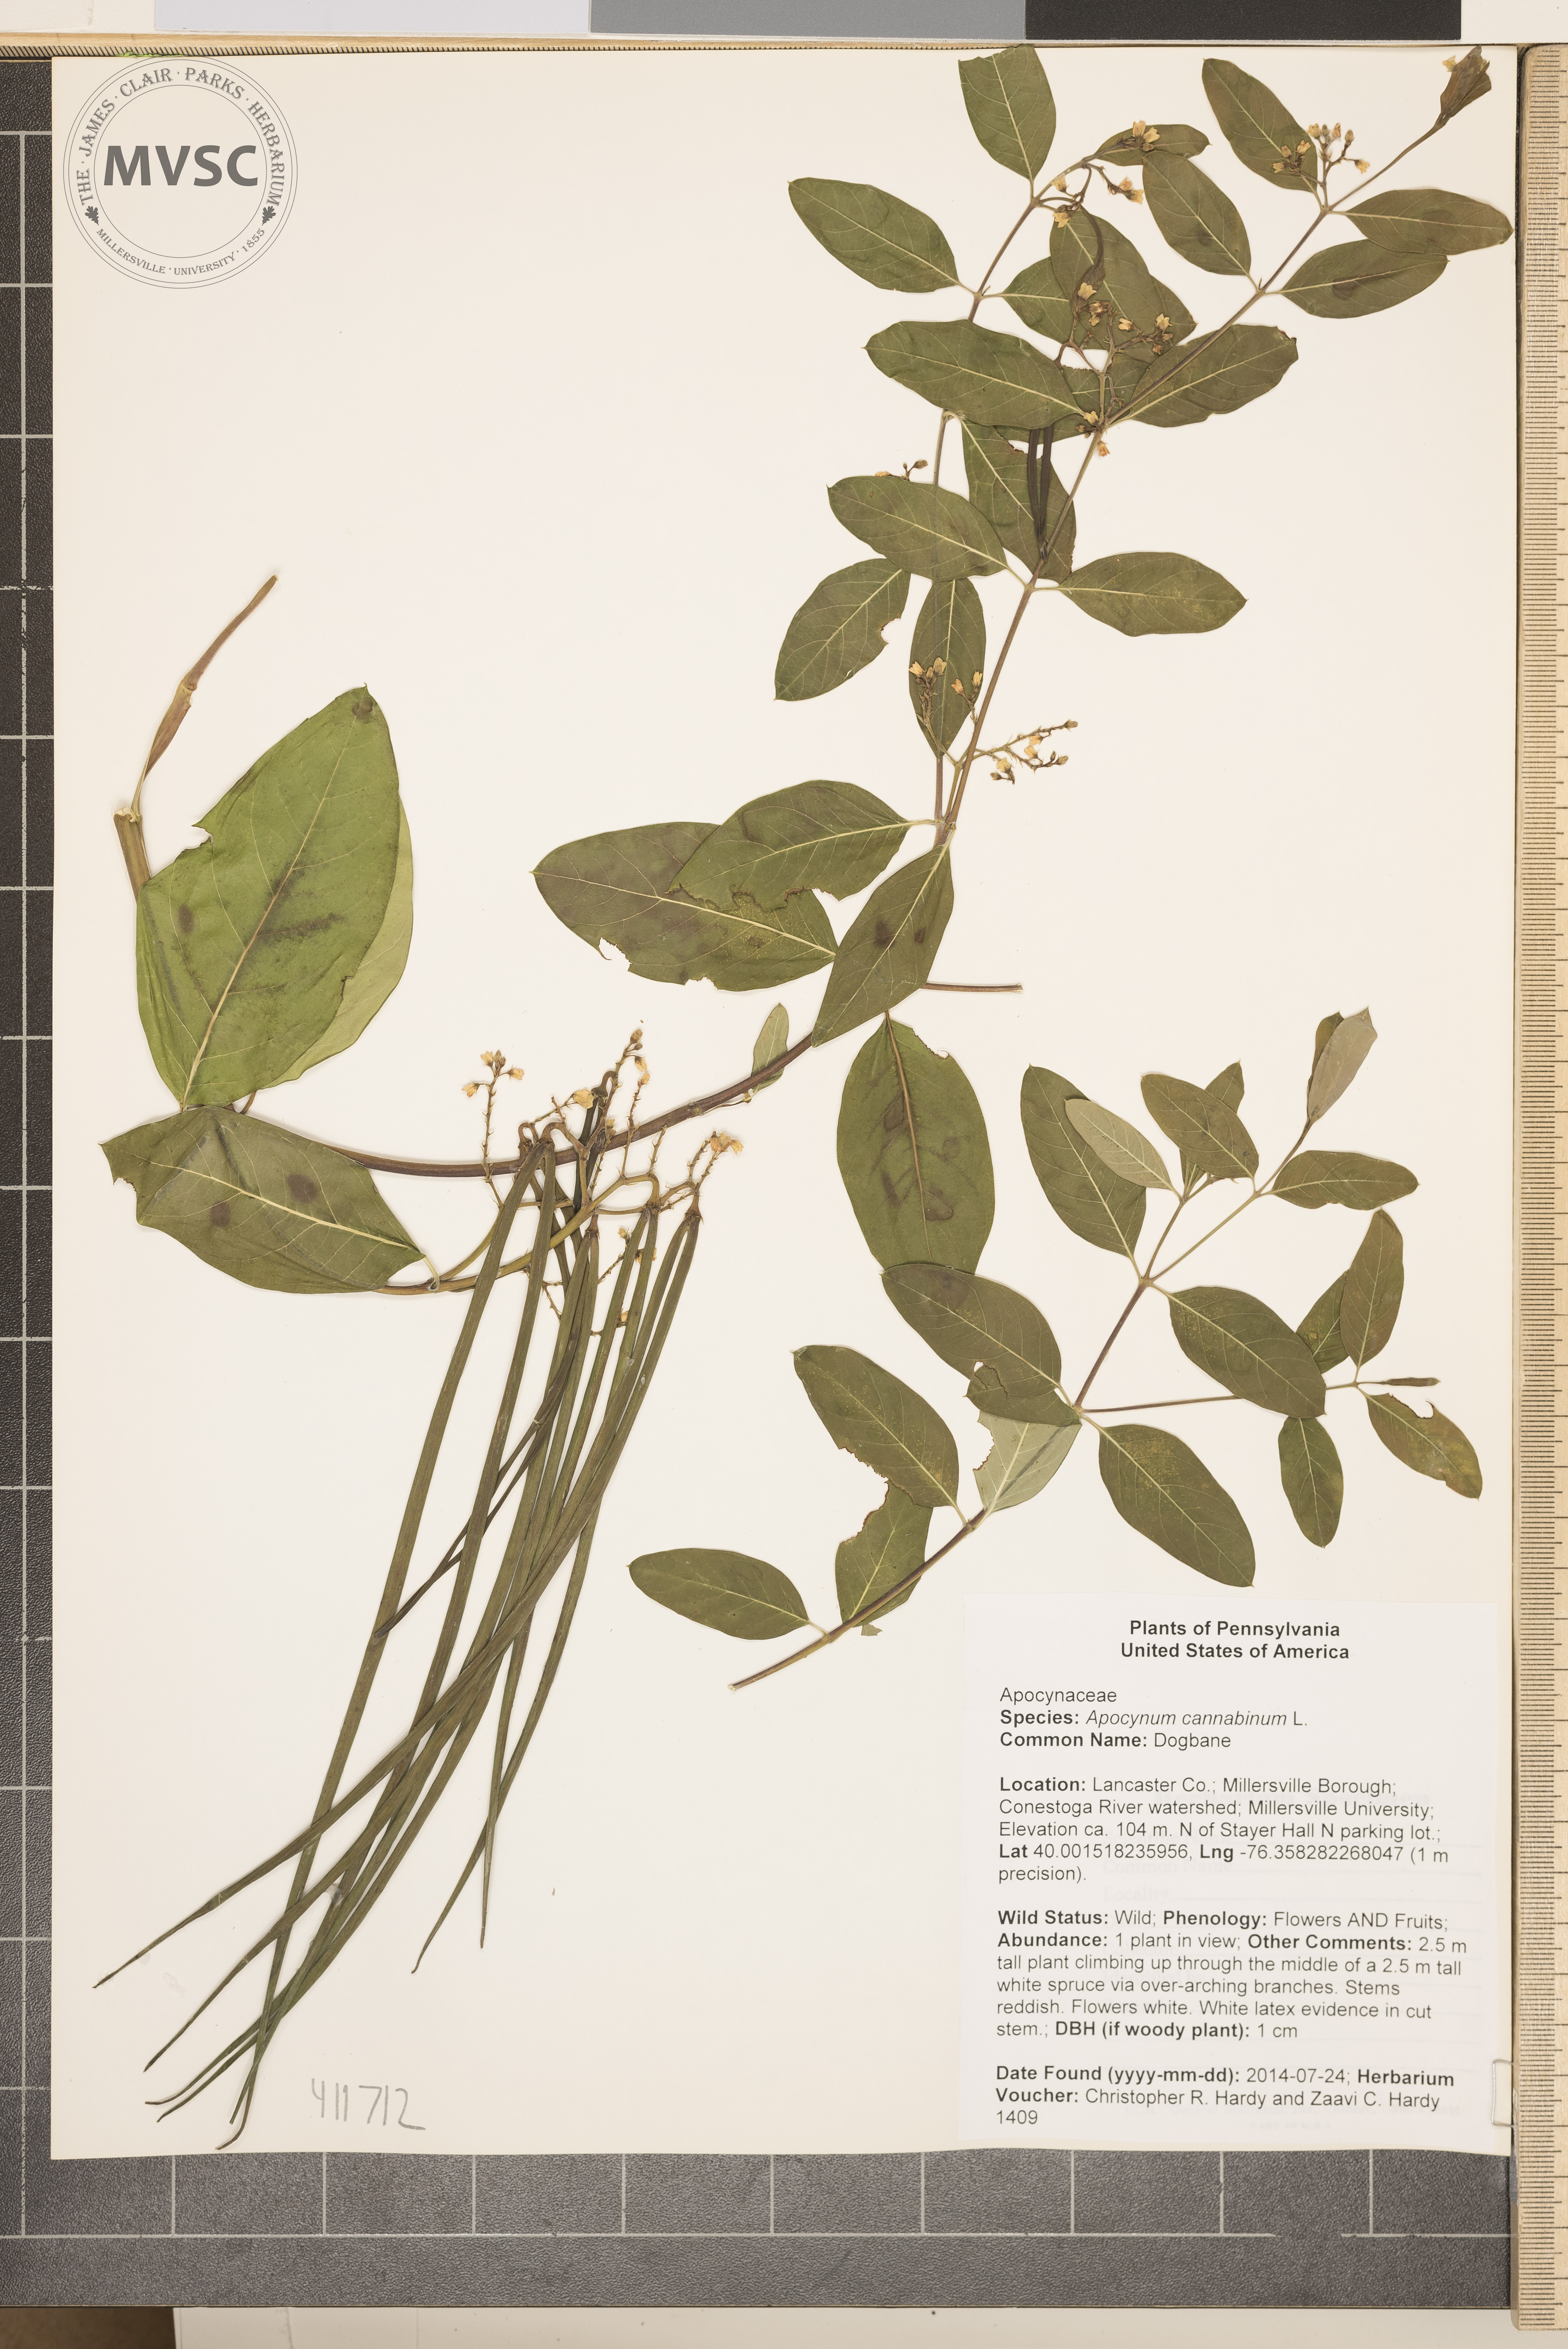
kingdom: Plantae
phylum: Tracheophyta
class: Magnoliopsida
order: Gentianales
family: Apocynaceae
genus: Apocynum
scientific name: Apocynum cannabinum
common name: Dogbane
